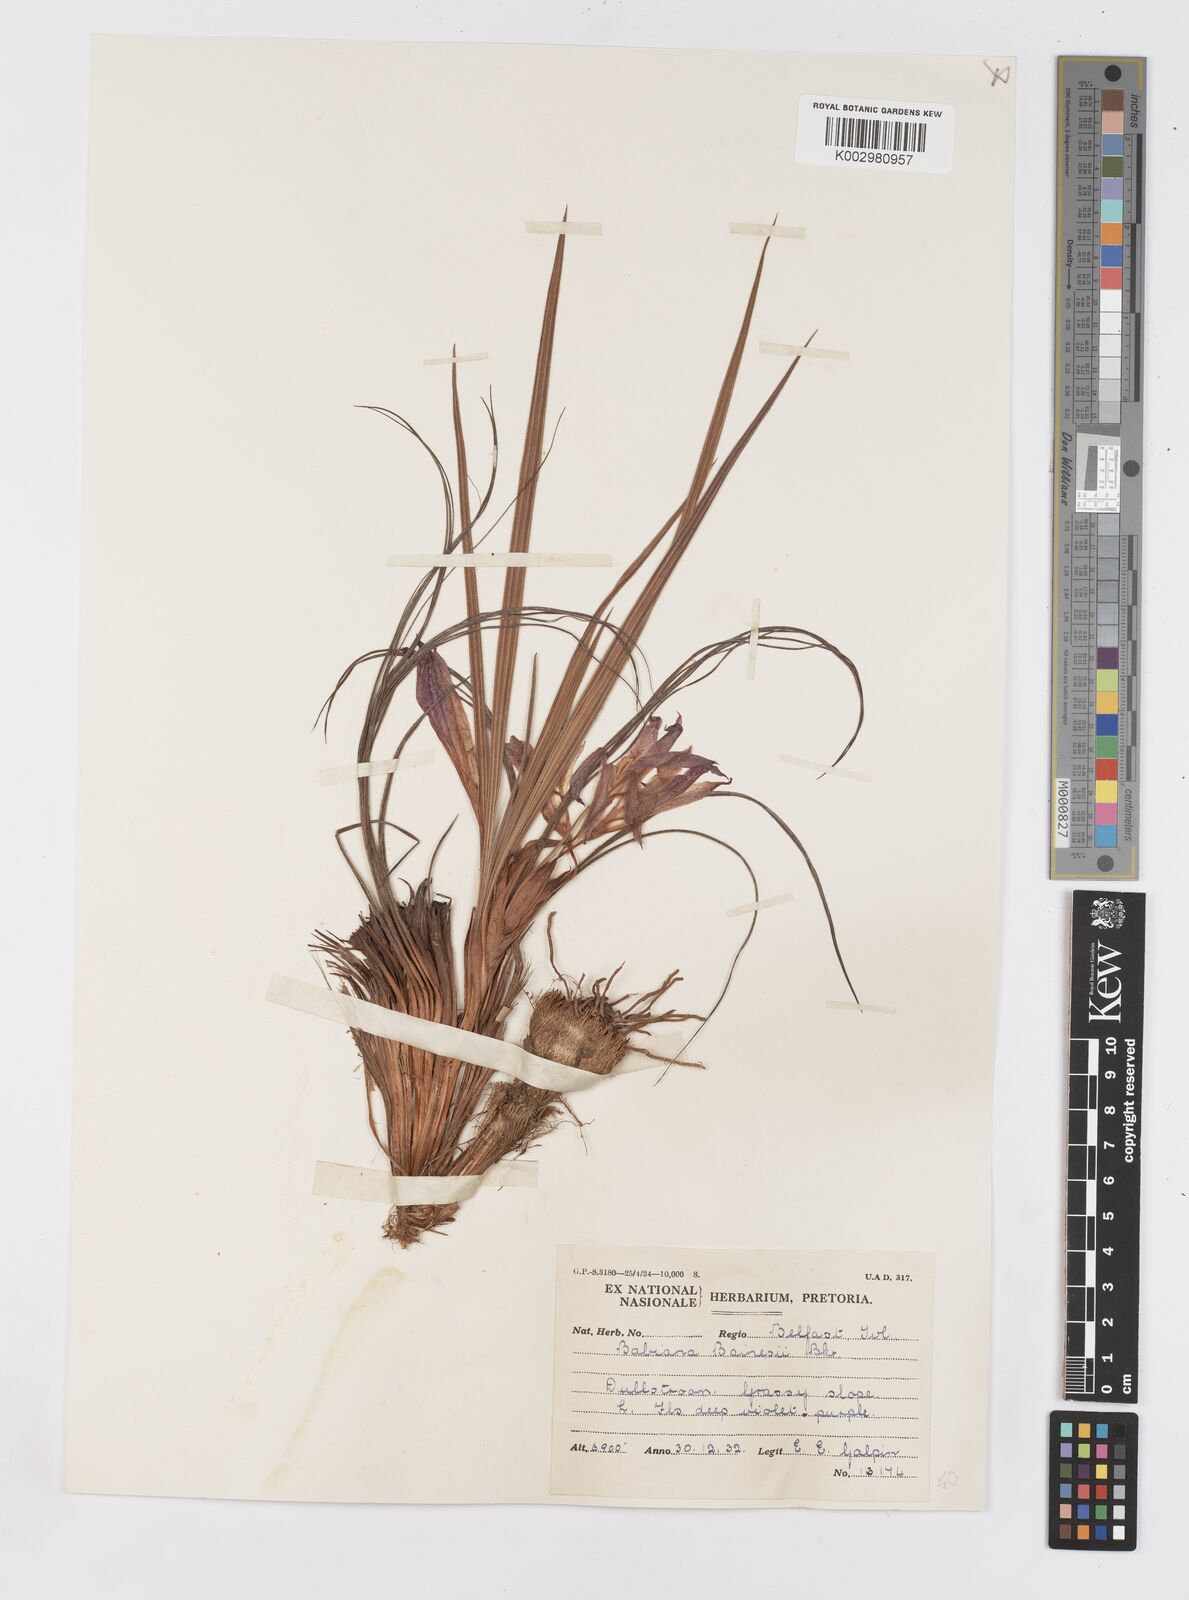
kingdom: Plantae
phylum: Tracheophyta
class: Liliopsida
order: Asparagales
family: Iridaceae
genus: Babiana
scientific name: Babiana bainesii
